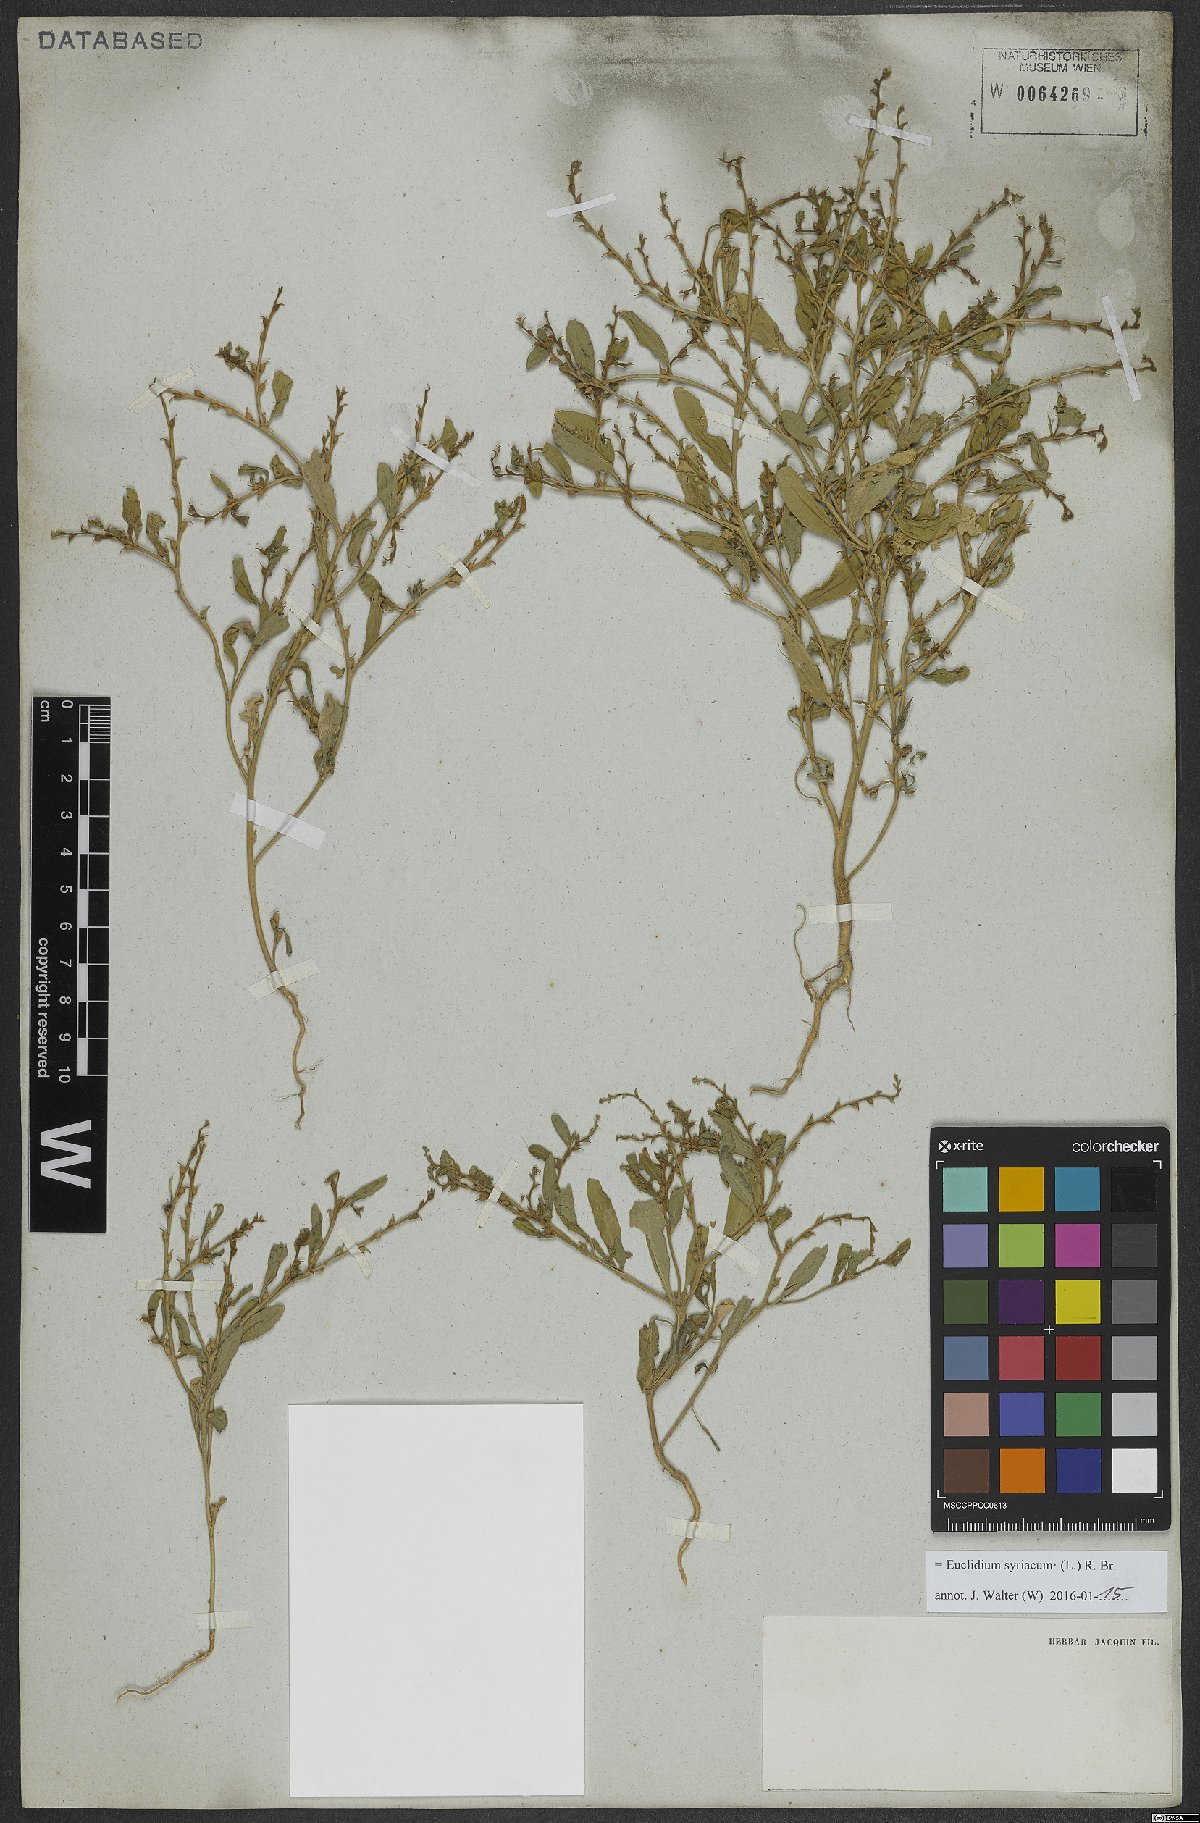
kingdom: Plantae
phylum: Tracheophyta
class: Magnoliopsida
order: Brassicales
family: Brassicaceae
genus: Euclidium
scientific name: Euclidium syriacum
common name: Syrian mustard
